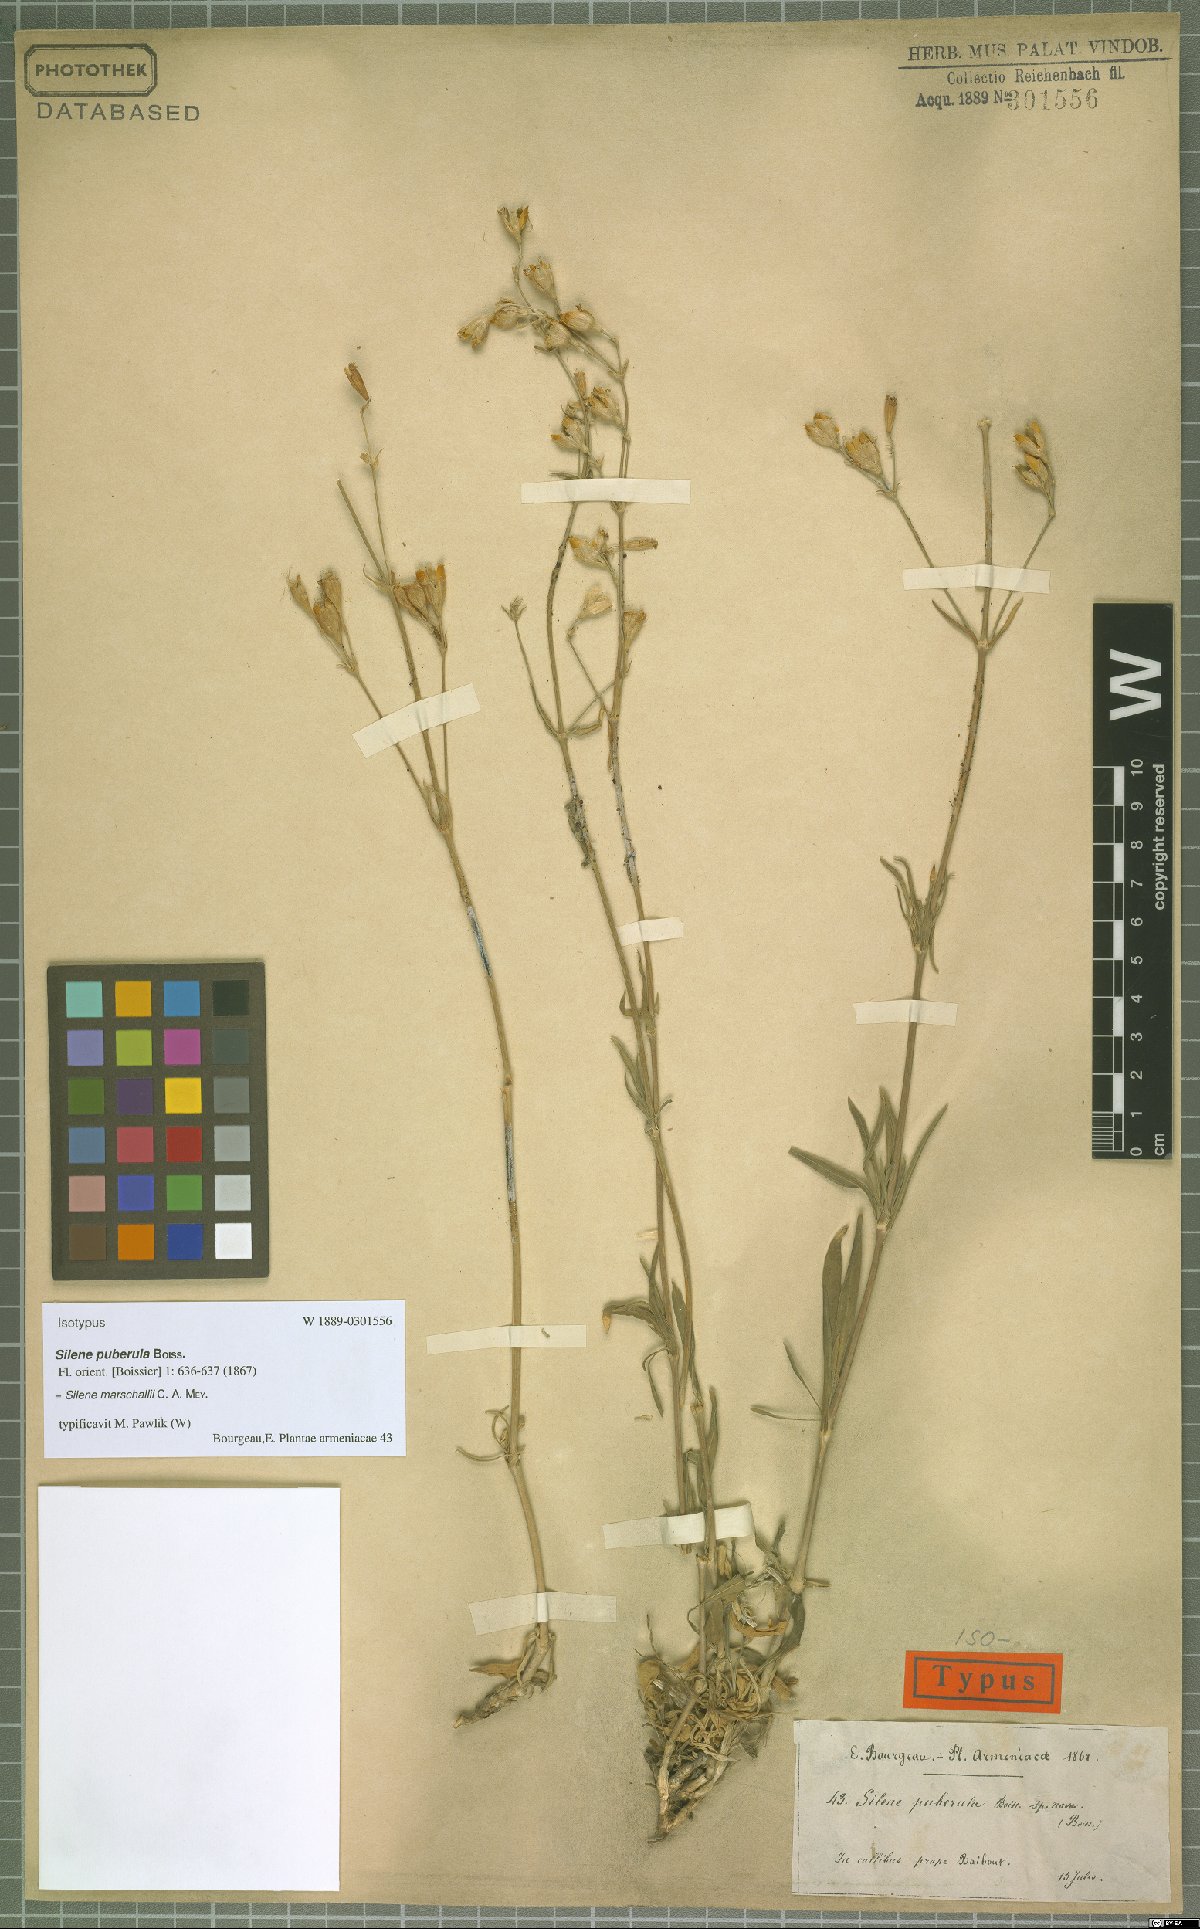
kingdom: Plantae
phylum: Tracheophyta
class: Magnoliopsida
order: Caryophyllales
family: Caryophyllaceae
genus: Silene
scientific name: Silene marschallii
